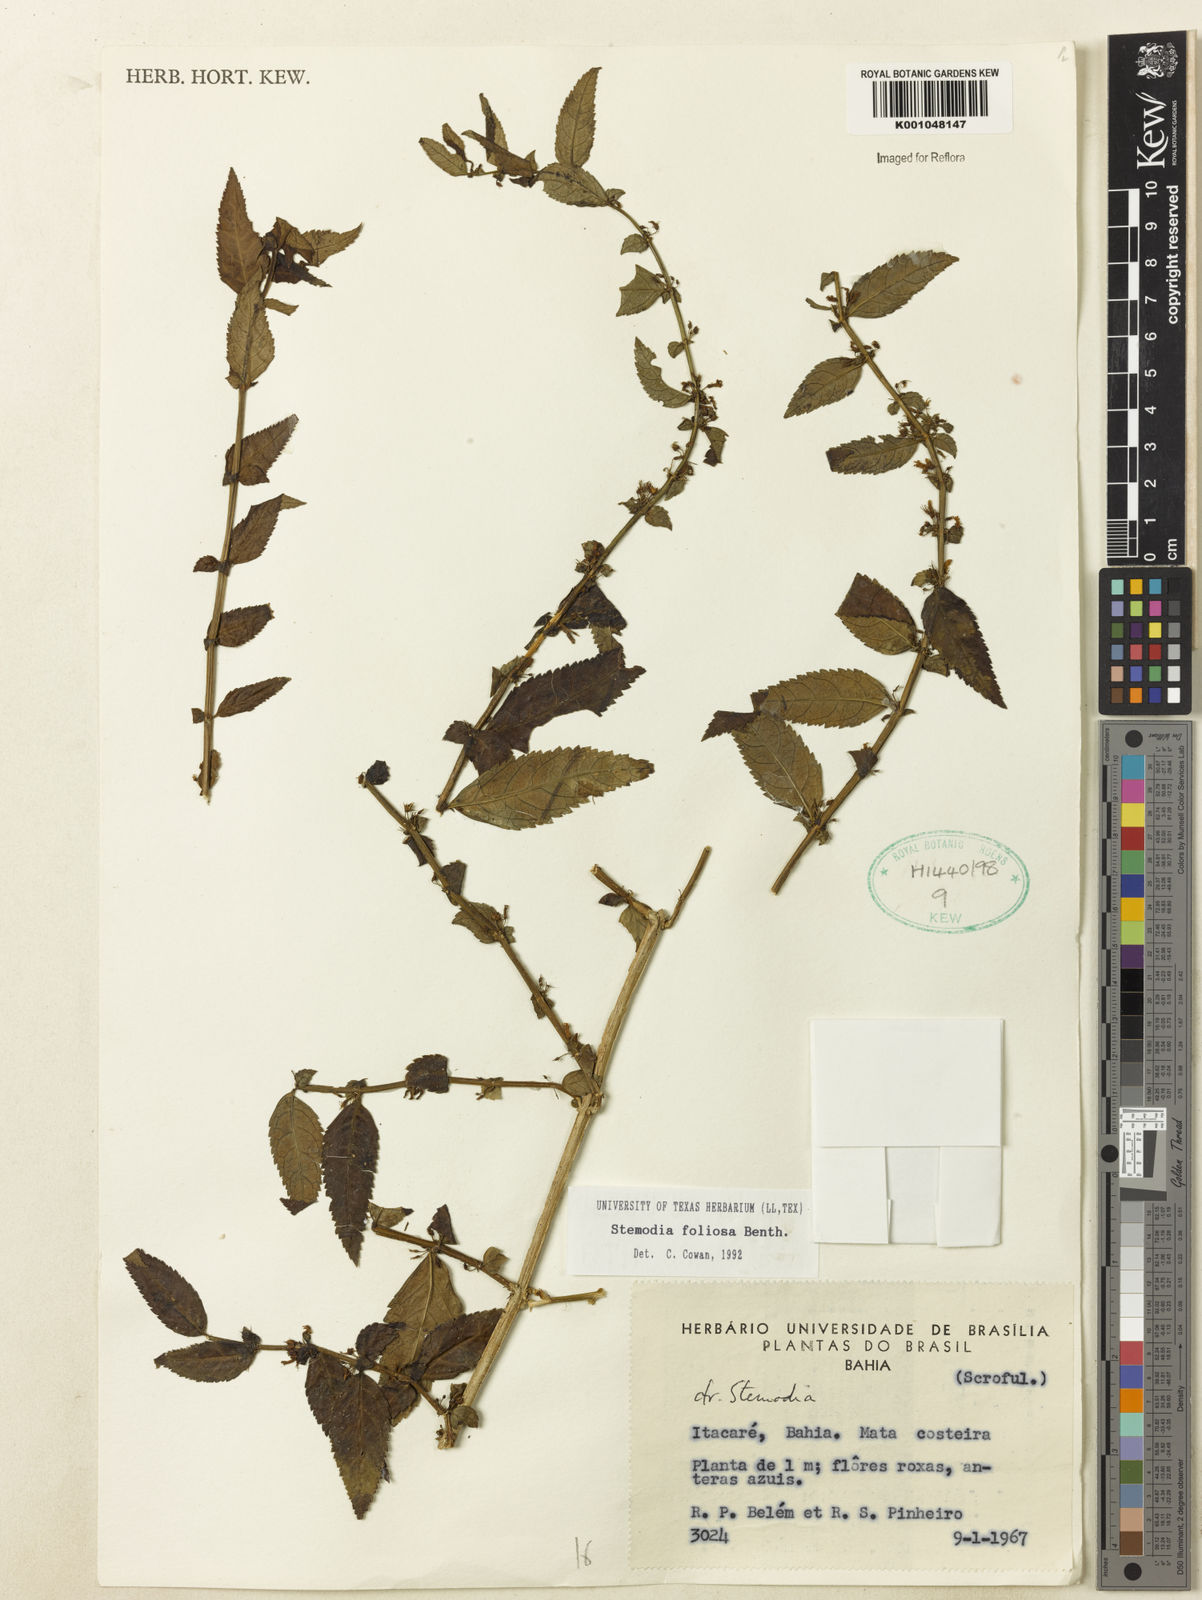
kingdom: Plantae
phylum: Tracheophyta
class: Magnoliopsida
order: Lamiales
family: Plantaginaceae
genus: Stemodia
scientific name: Stemodia foliosa
